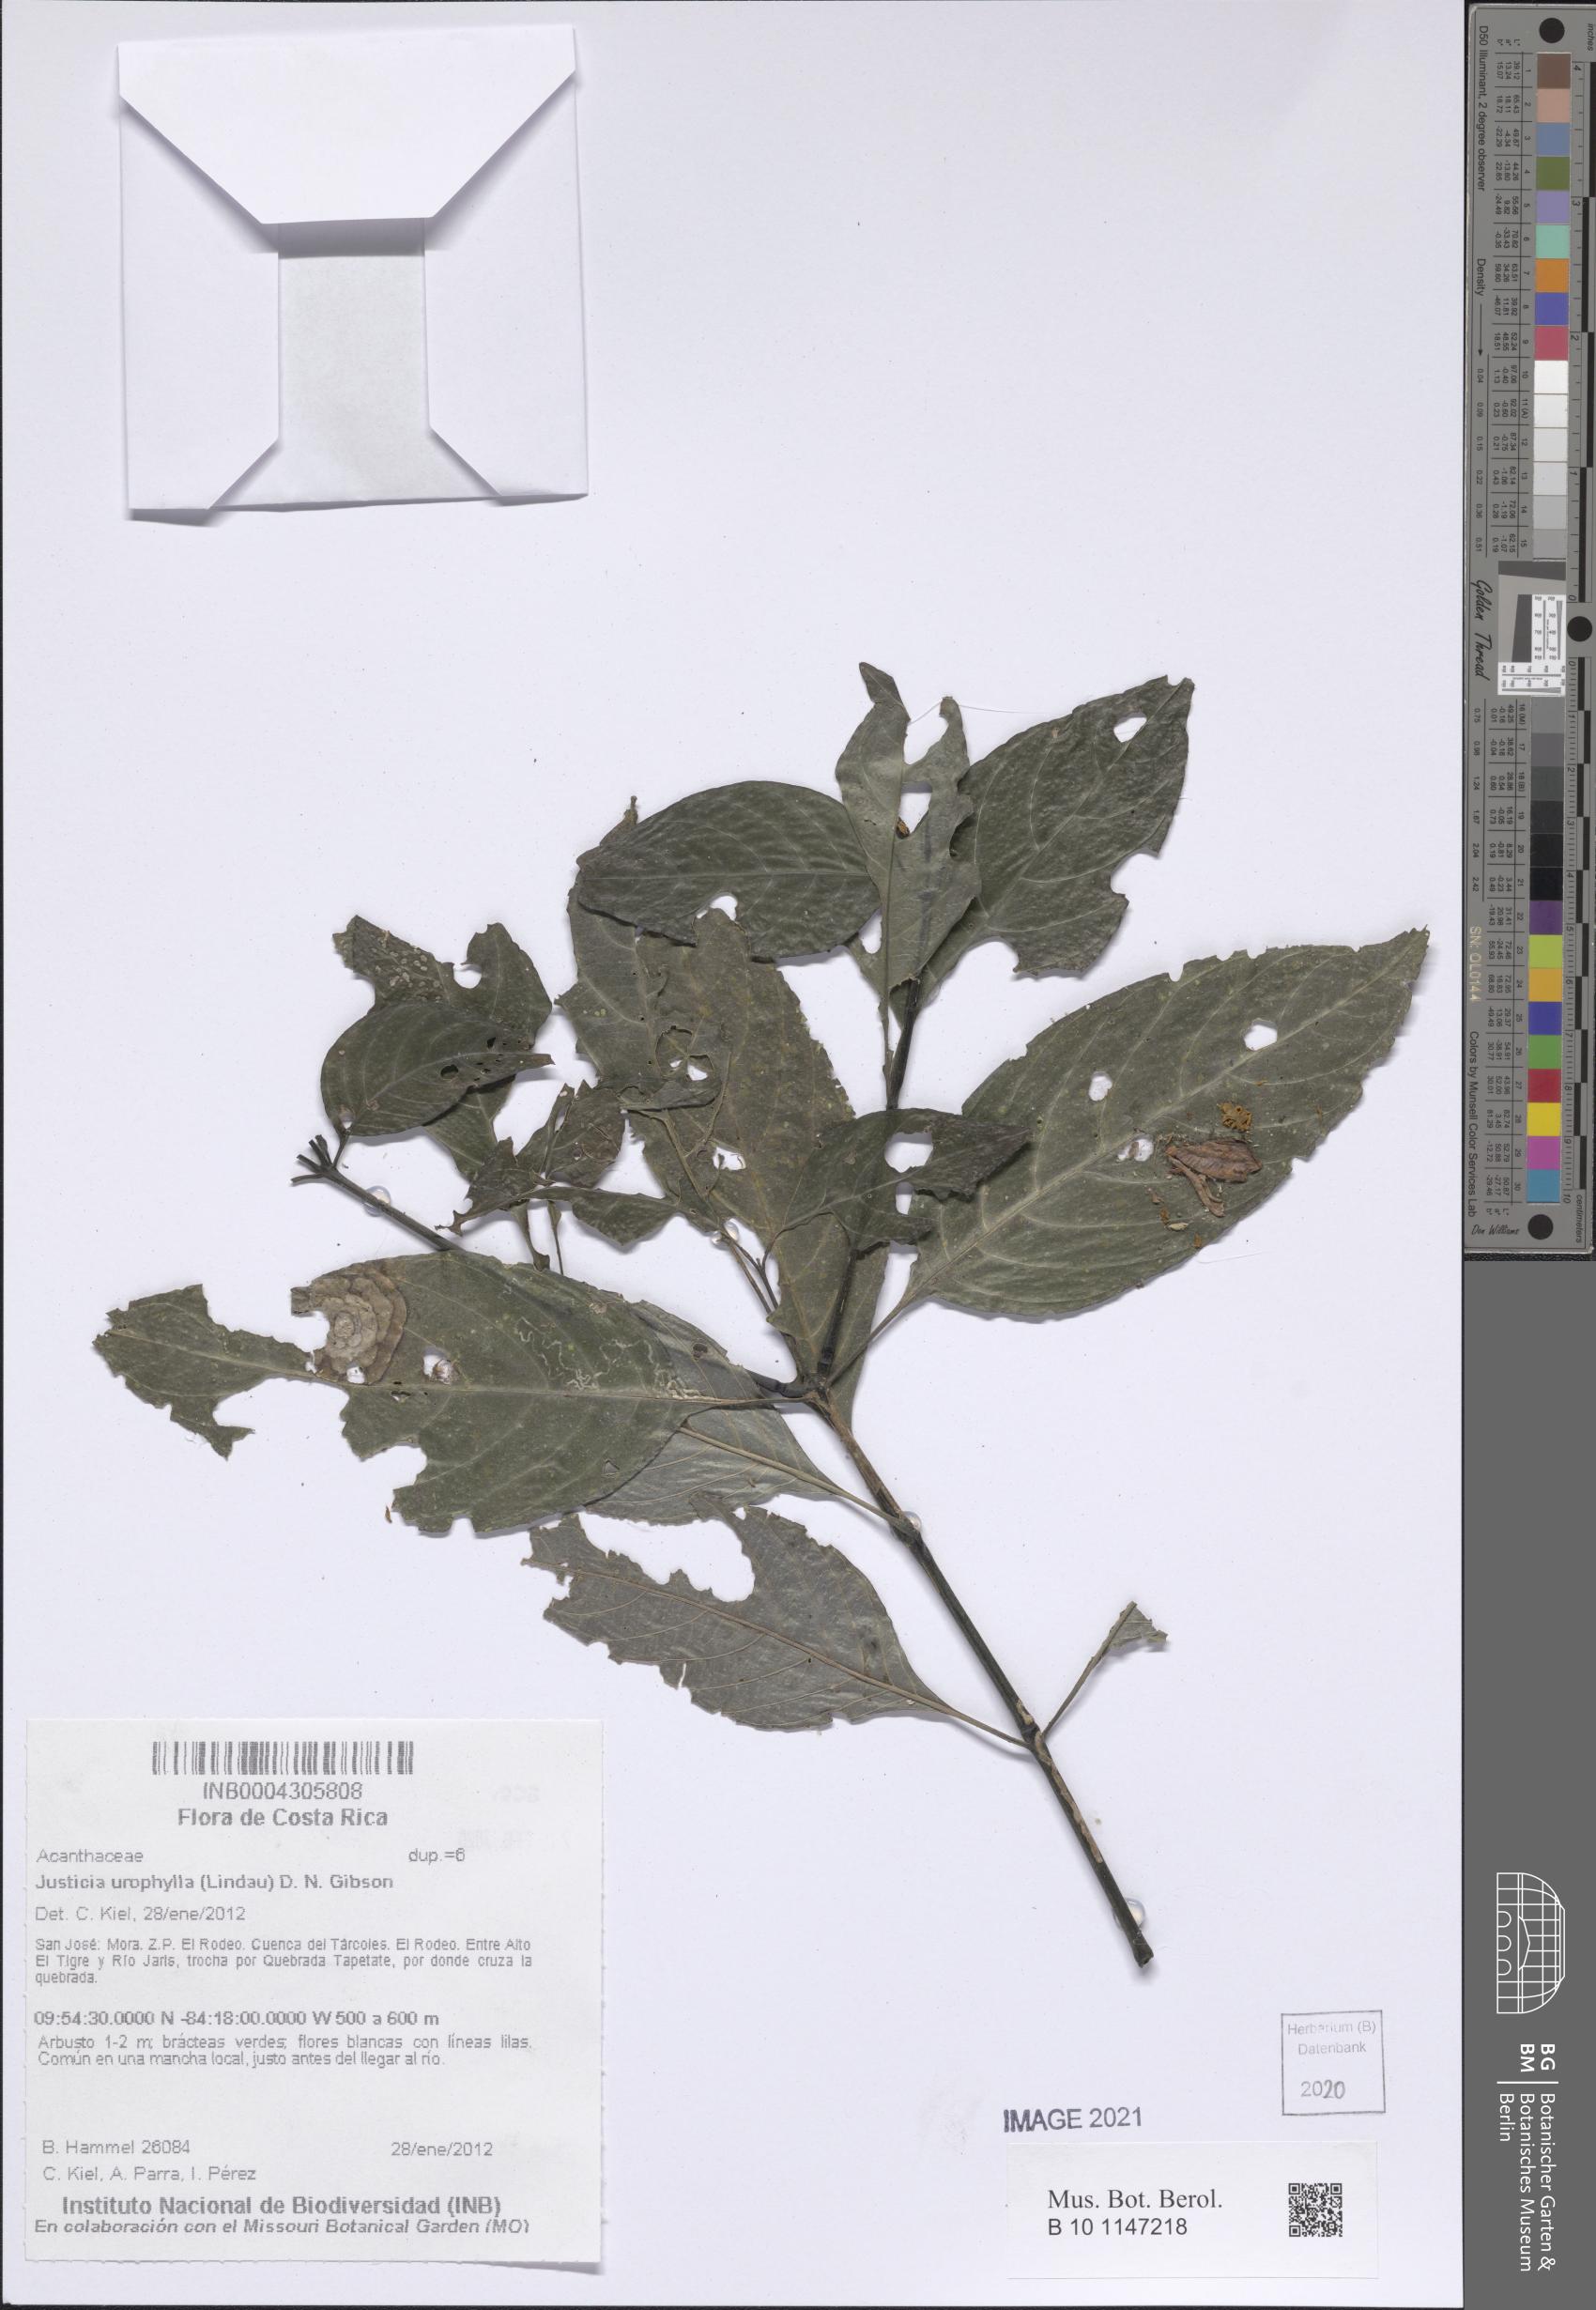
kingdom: Plantae
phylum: Tracheophyta
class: Magnoliopsida
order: Lamiales
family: Acanthaceae
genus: Justicia
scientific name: Justicia urophylla
